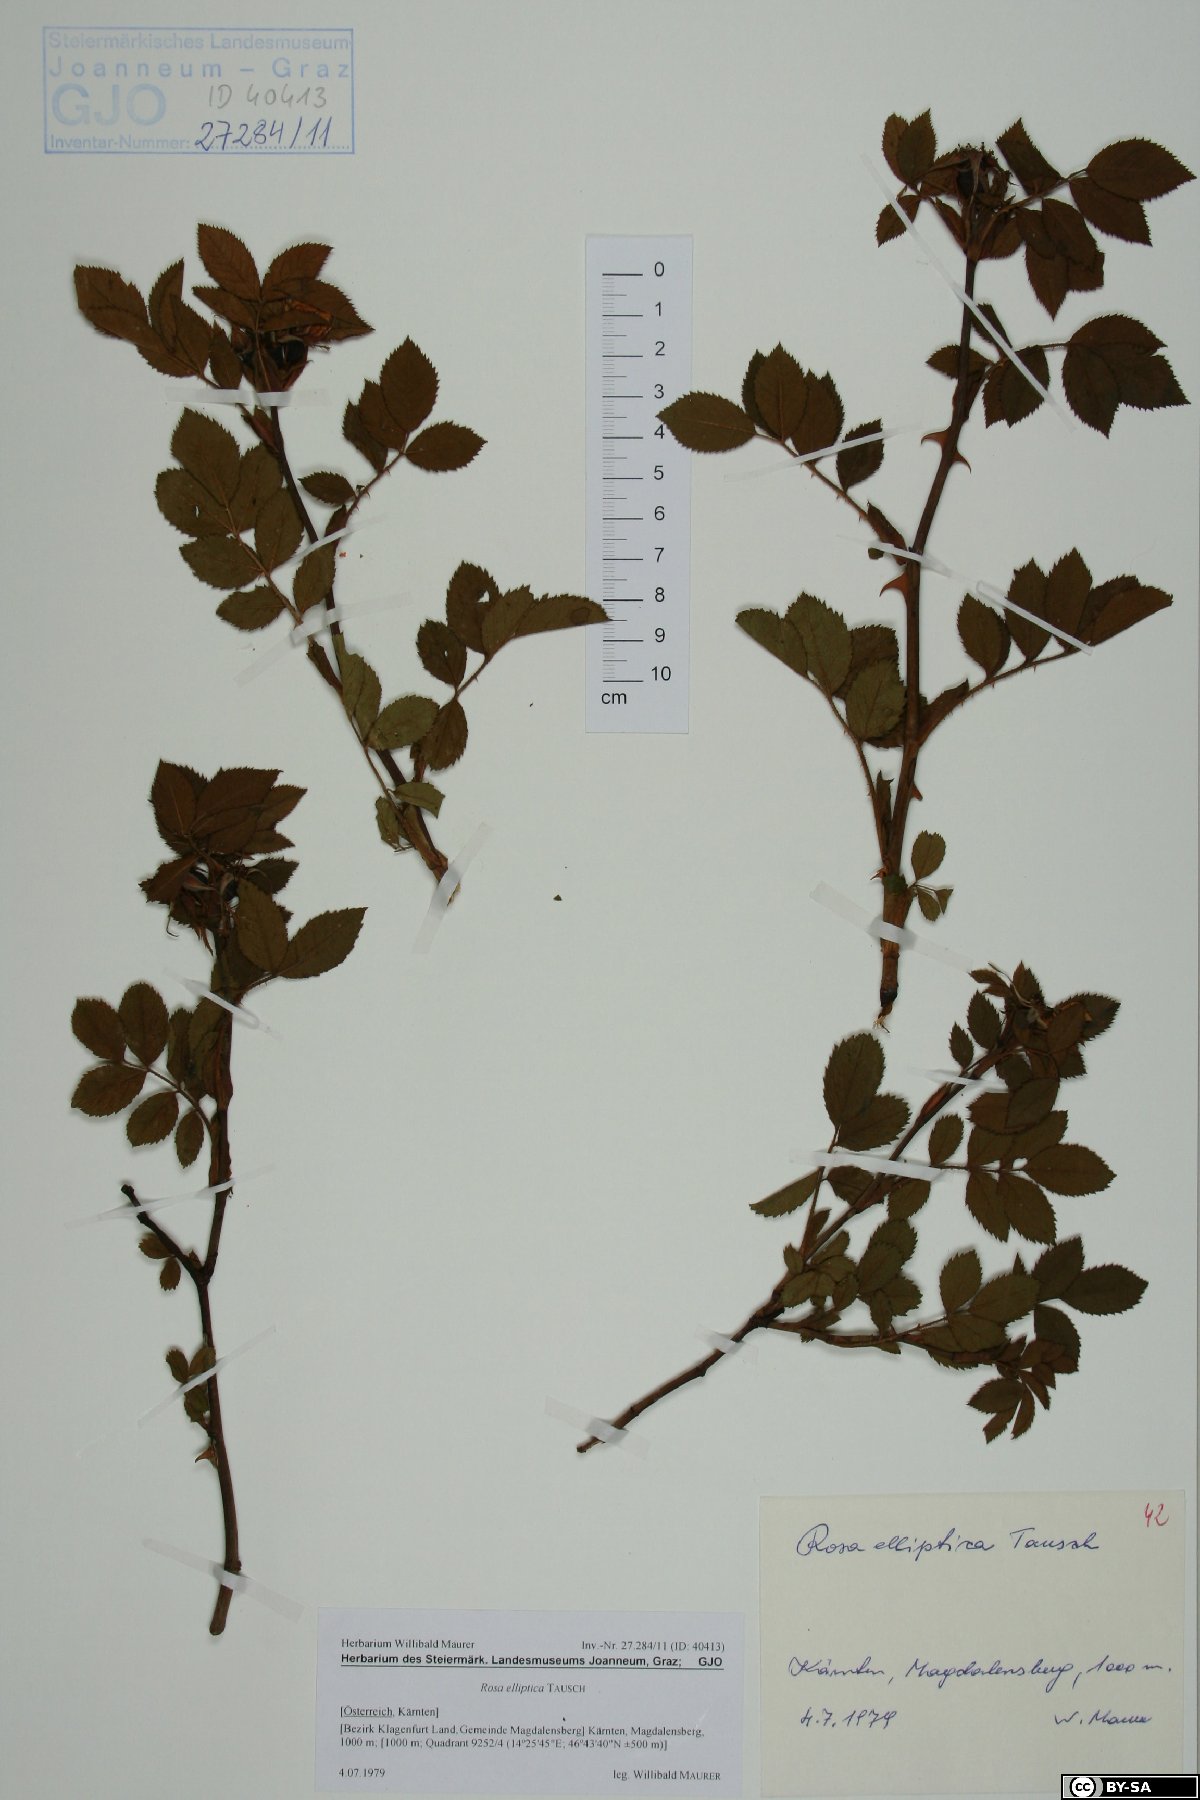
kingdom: Plantae
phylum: Tracheophyta
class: Magnoliopsida
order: Rosales
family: Rosaceae
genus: Rosa
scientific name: Rosa inodora
